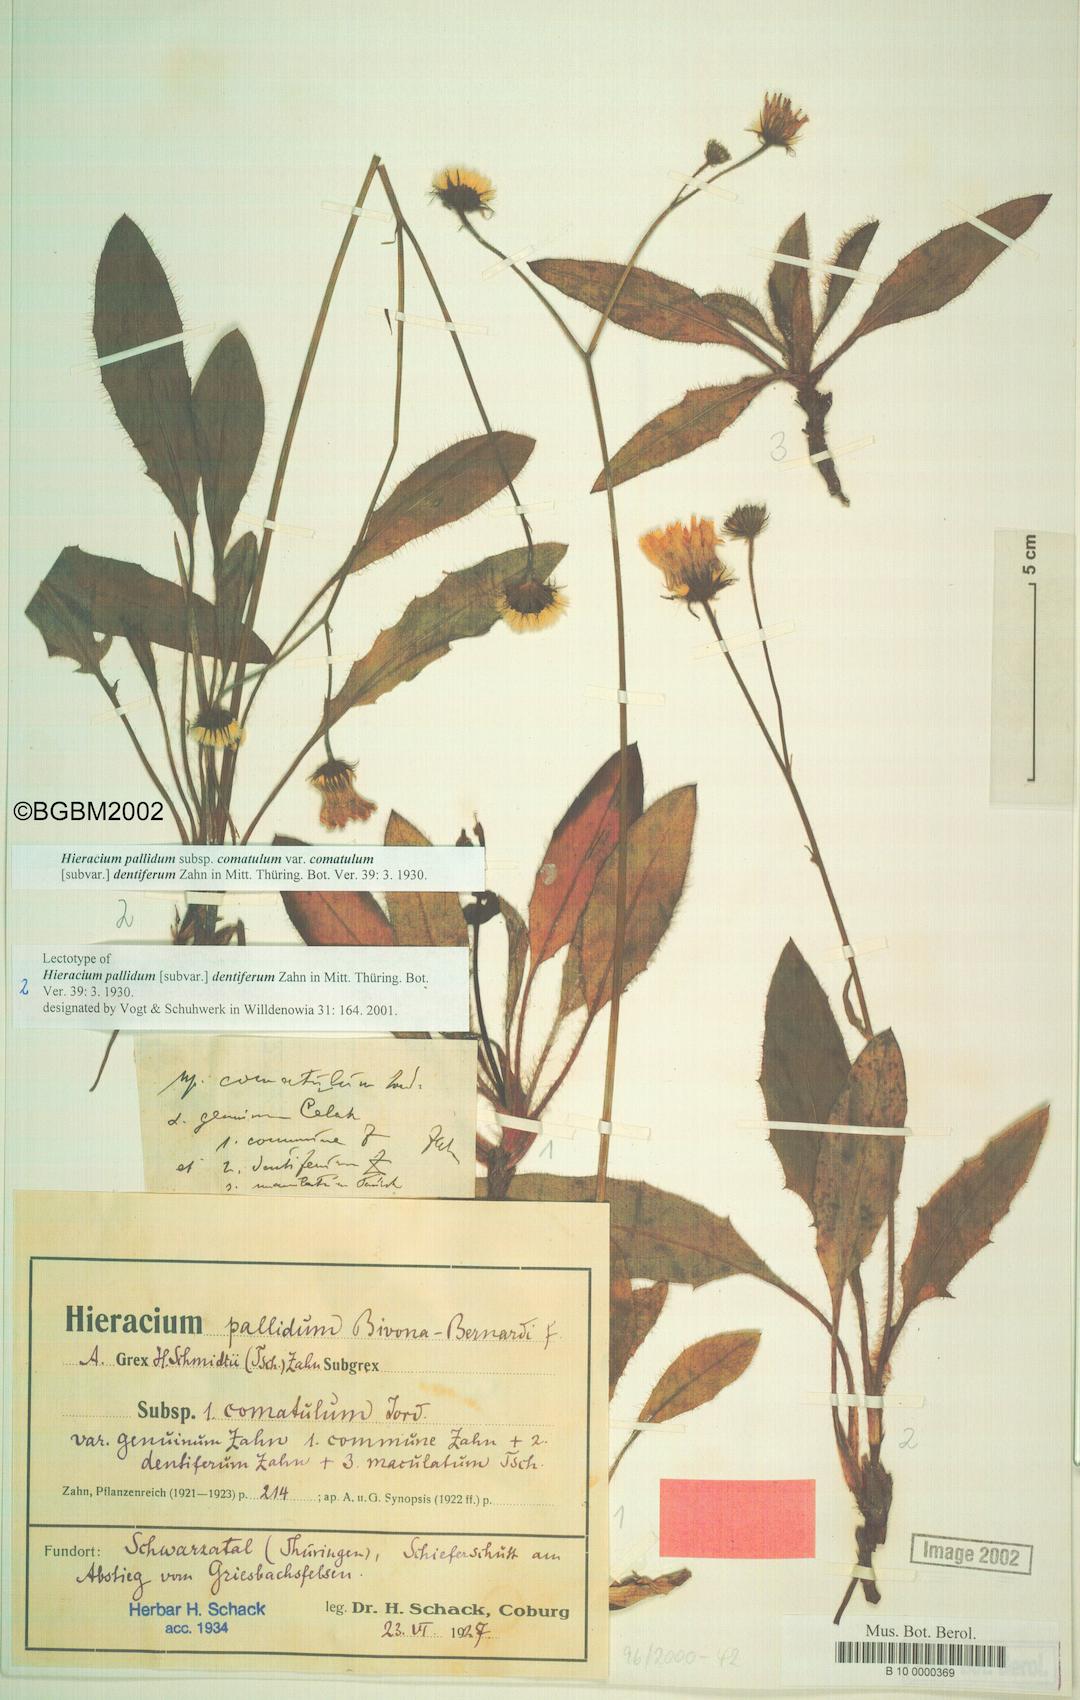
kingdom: Plantae
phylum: Tracheophyta
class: Magnoliopsida
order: Asterales
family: Asteraceae
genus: Hieracium
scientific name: Hieracium pallidum
